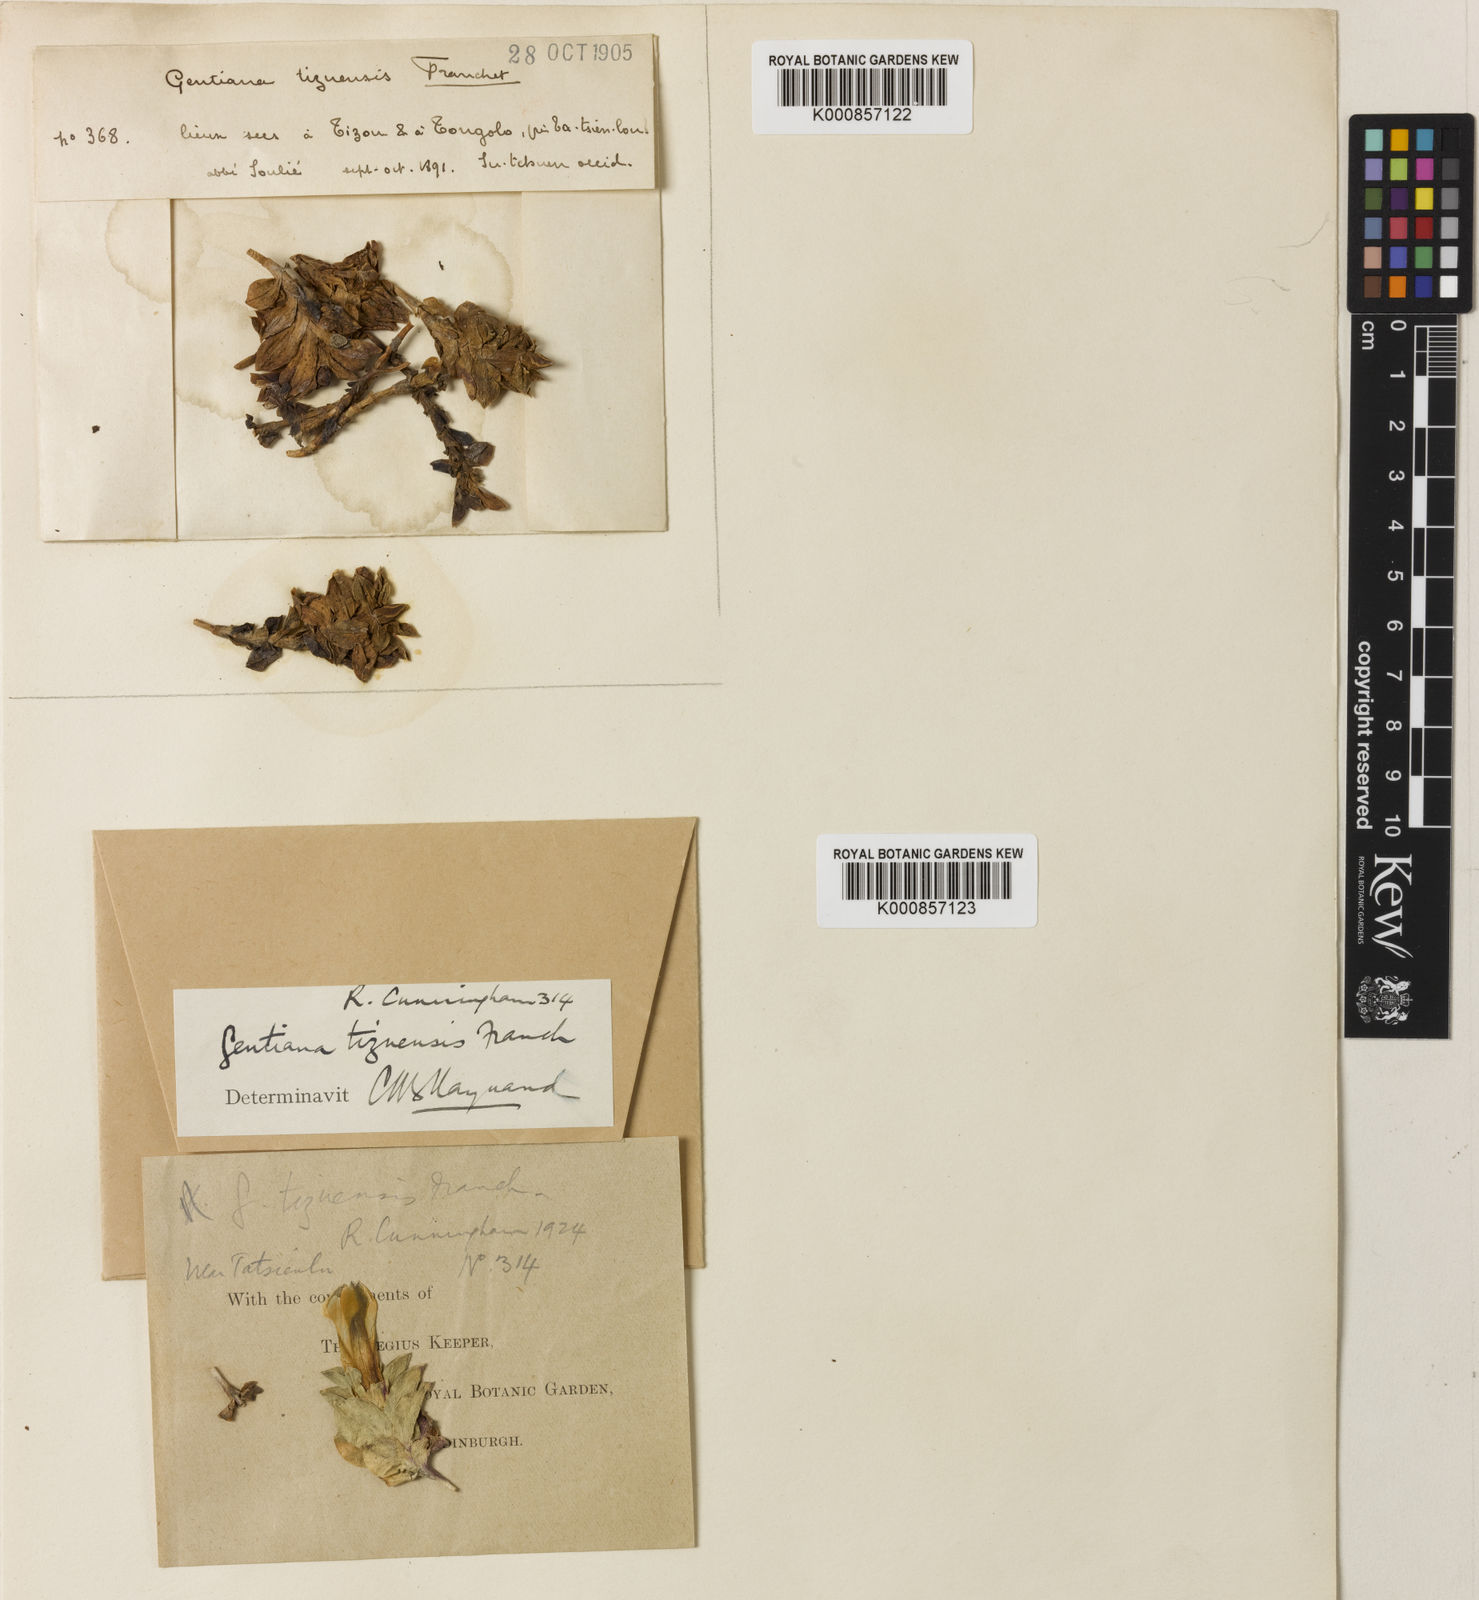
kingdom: Plantae
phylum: Tracheophyta
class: Magnoliopsida
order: Gentianales
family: Gentianaceae
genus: Gentiana
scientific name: Gentiana stipitata
